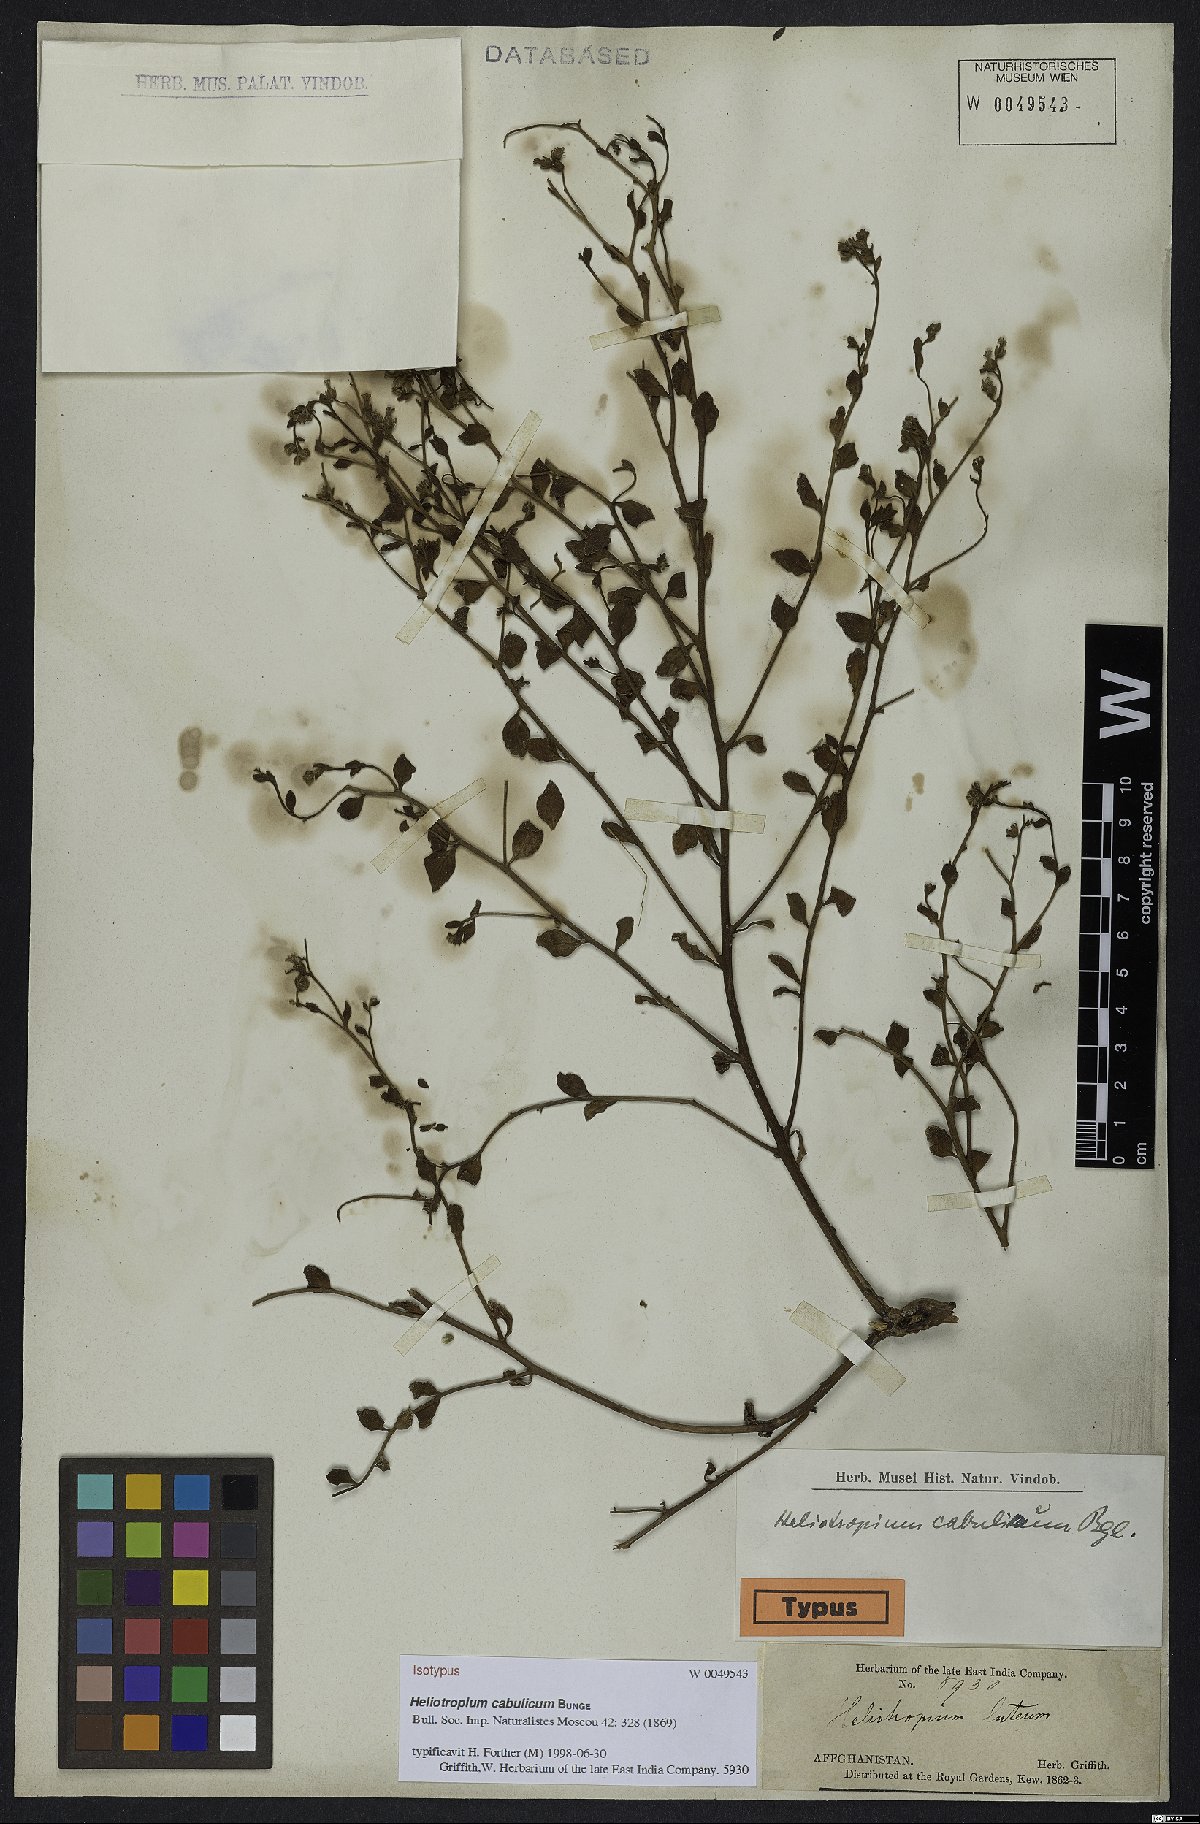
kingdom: Plantae
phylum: Tracheophyta
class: Magnoliopsida
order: Boraginales
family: Heliotropiaceae
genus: Heliotropium
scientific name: Heliotropium cabulicum
